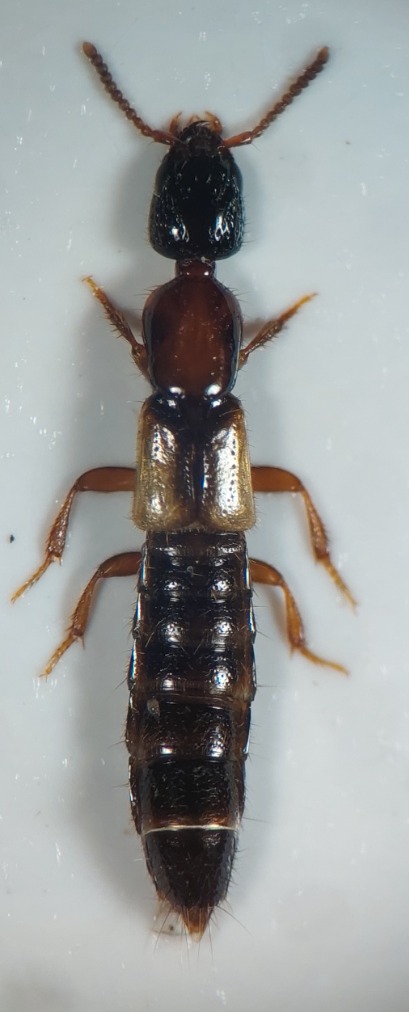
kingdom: Animalia
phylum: Arthropoda
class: Insecta
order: Coleoptera
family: Staphylinidae
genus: Phacophallus
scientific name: Phacophallus pallidipennis
